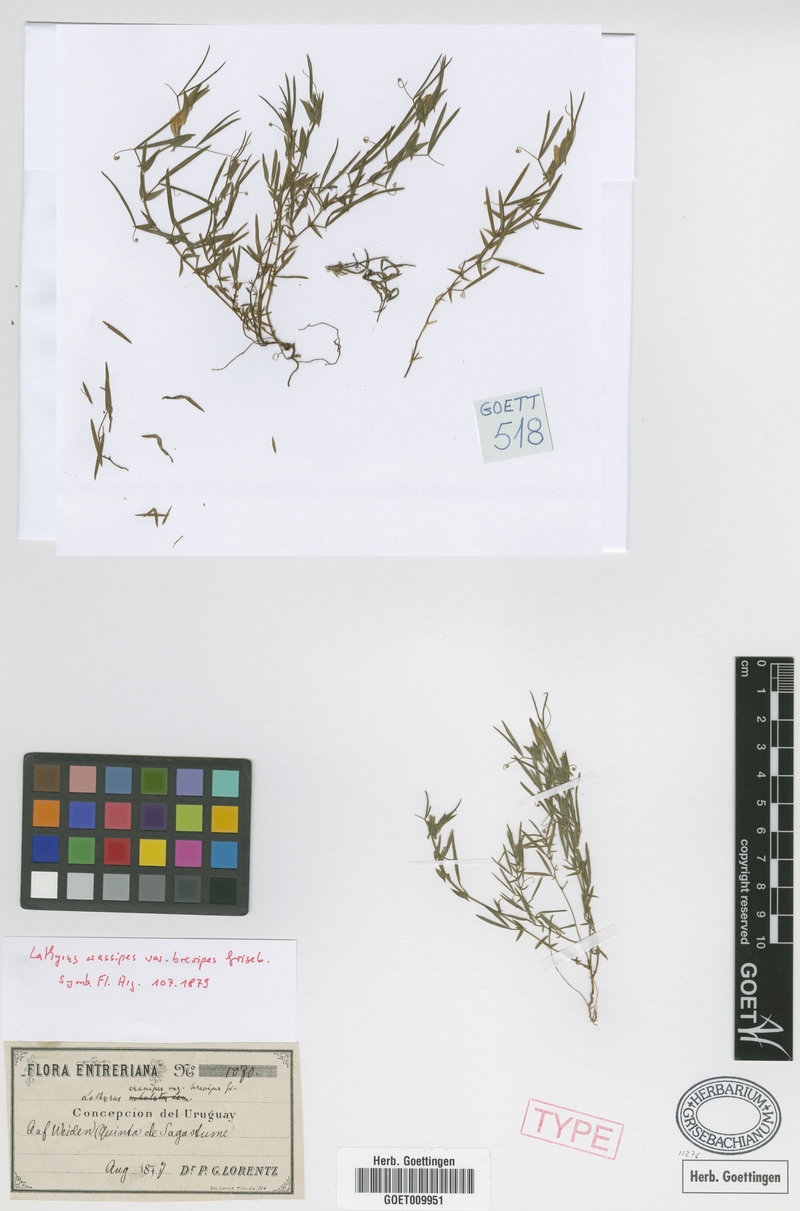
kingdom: Plantae
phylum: Tracheophyta
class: Magnoliopsida
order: Fabales
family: Fabaceae
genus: Lathyrus
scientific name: Lathyrus crassipes
